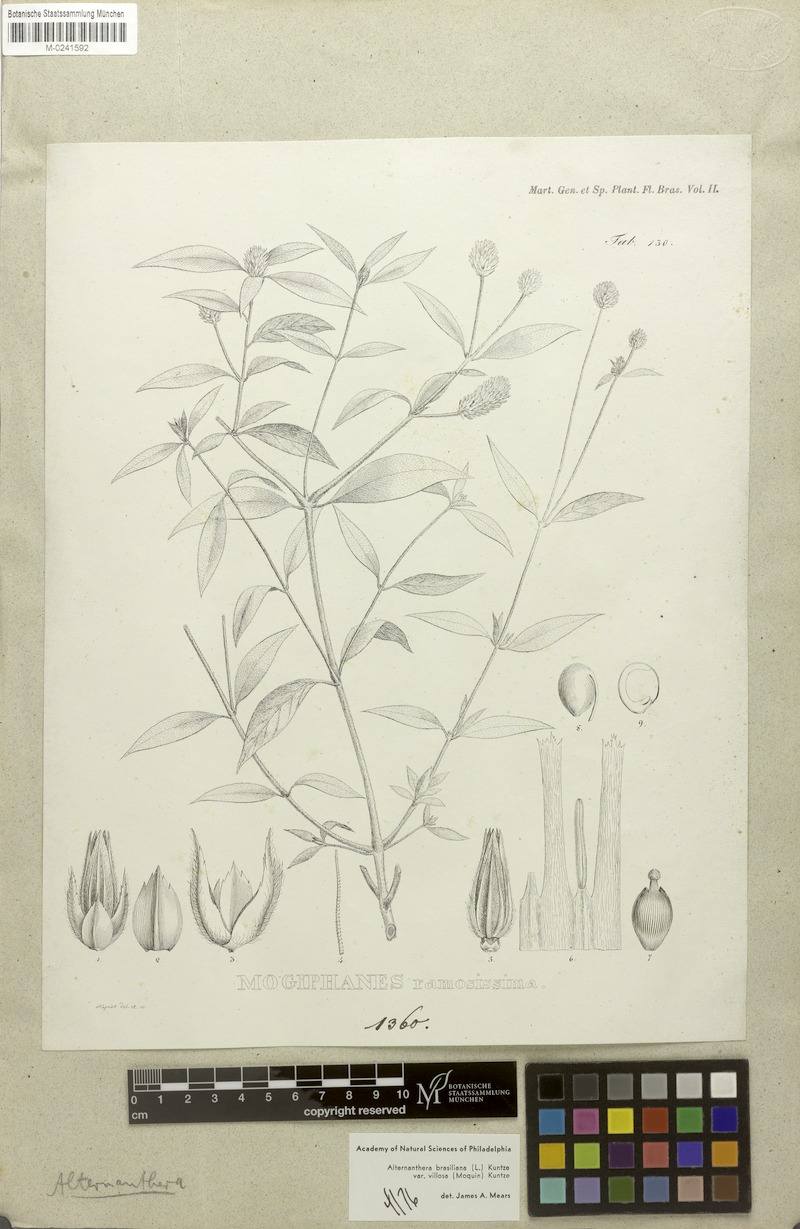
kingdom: Plantae
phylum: Tracheophyta
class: Magnoliopsida
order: Caryophyllales
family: Amaranthaceae
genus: Alternanthera
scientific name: Alternanthera ramosissima
